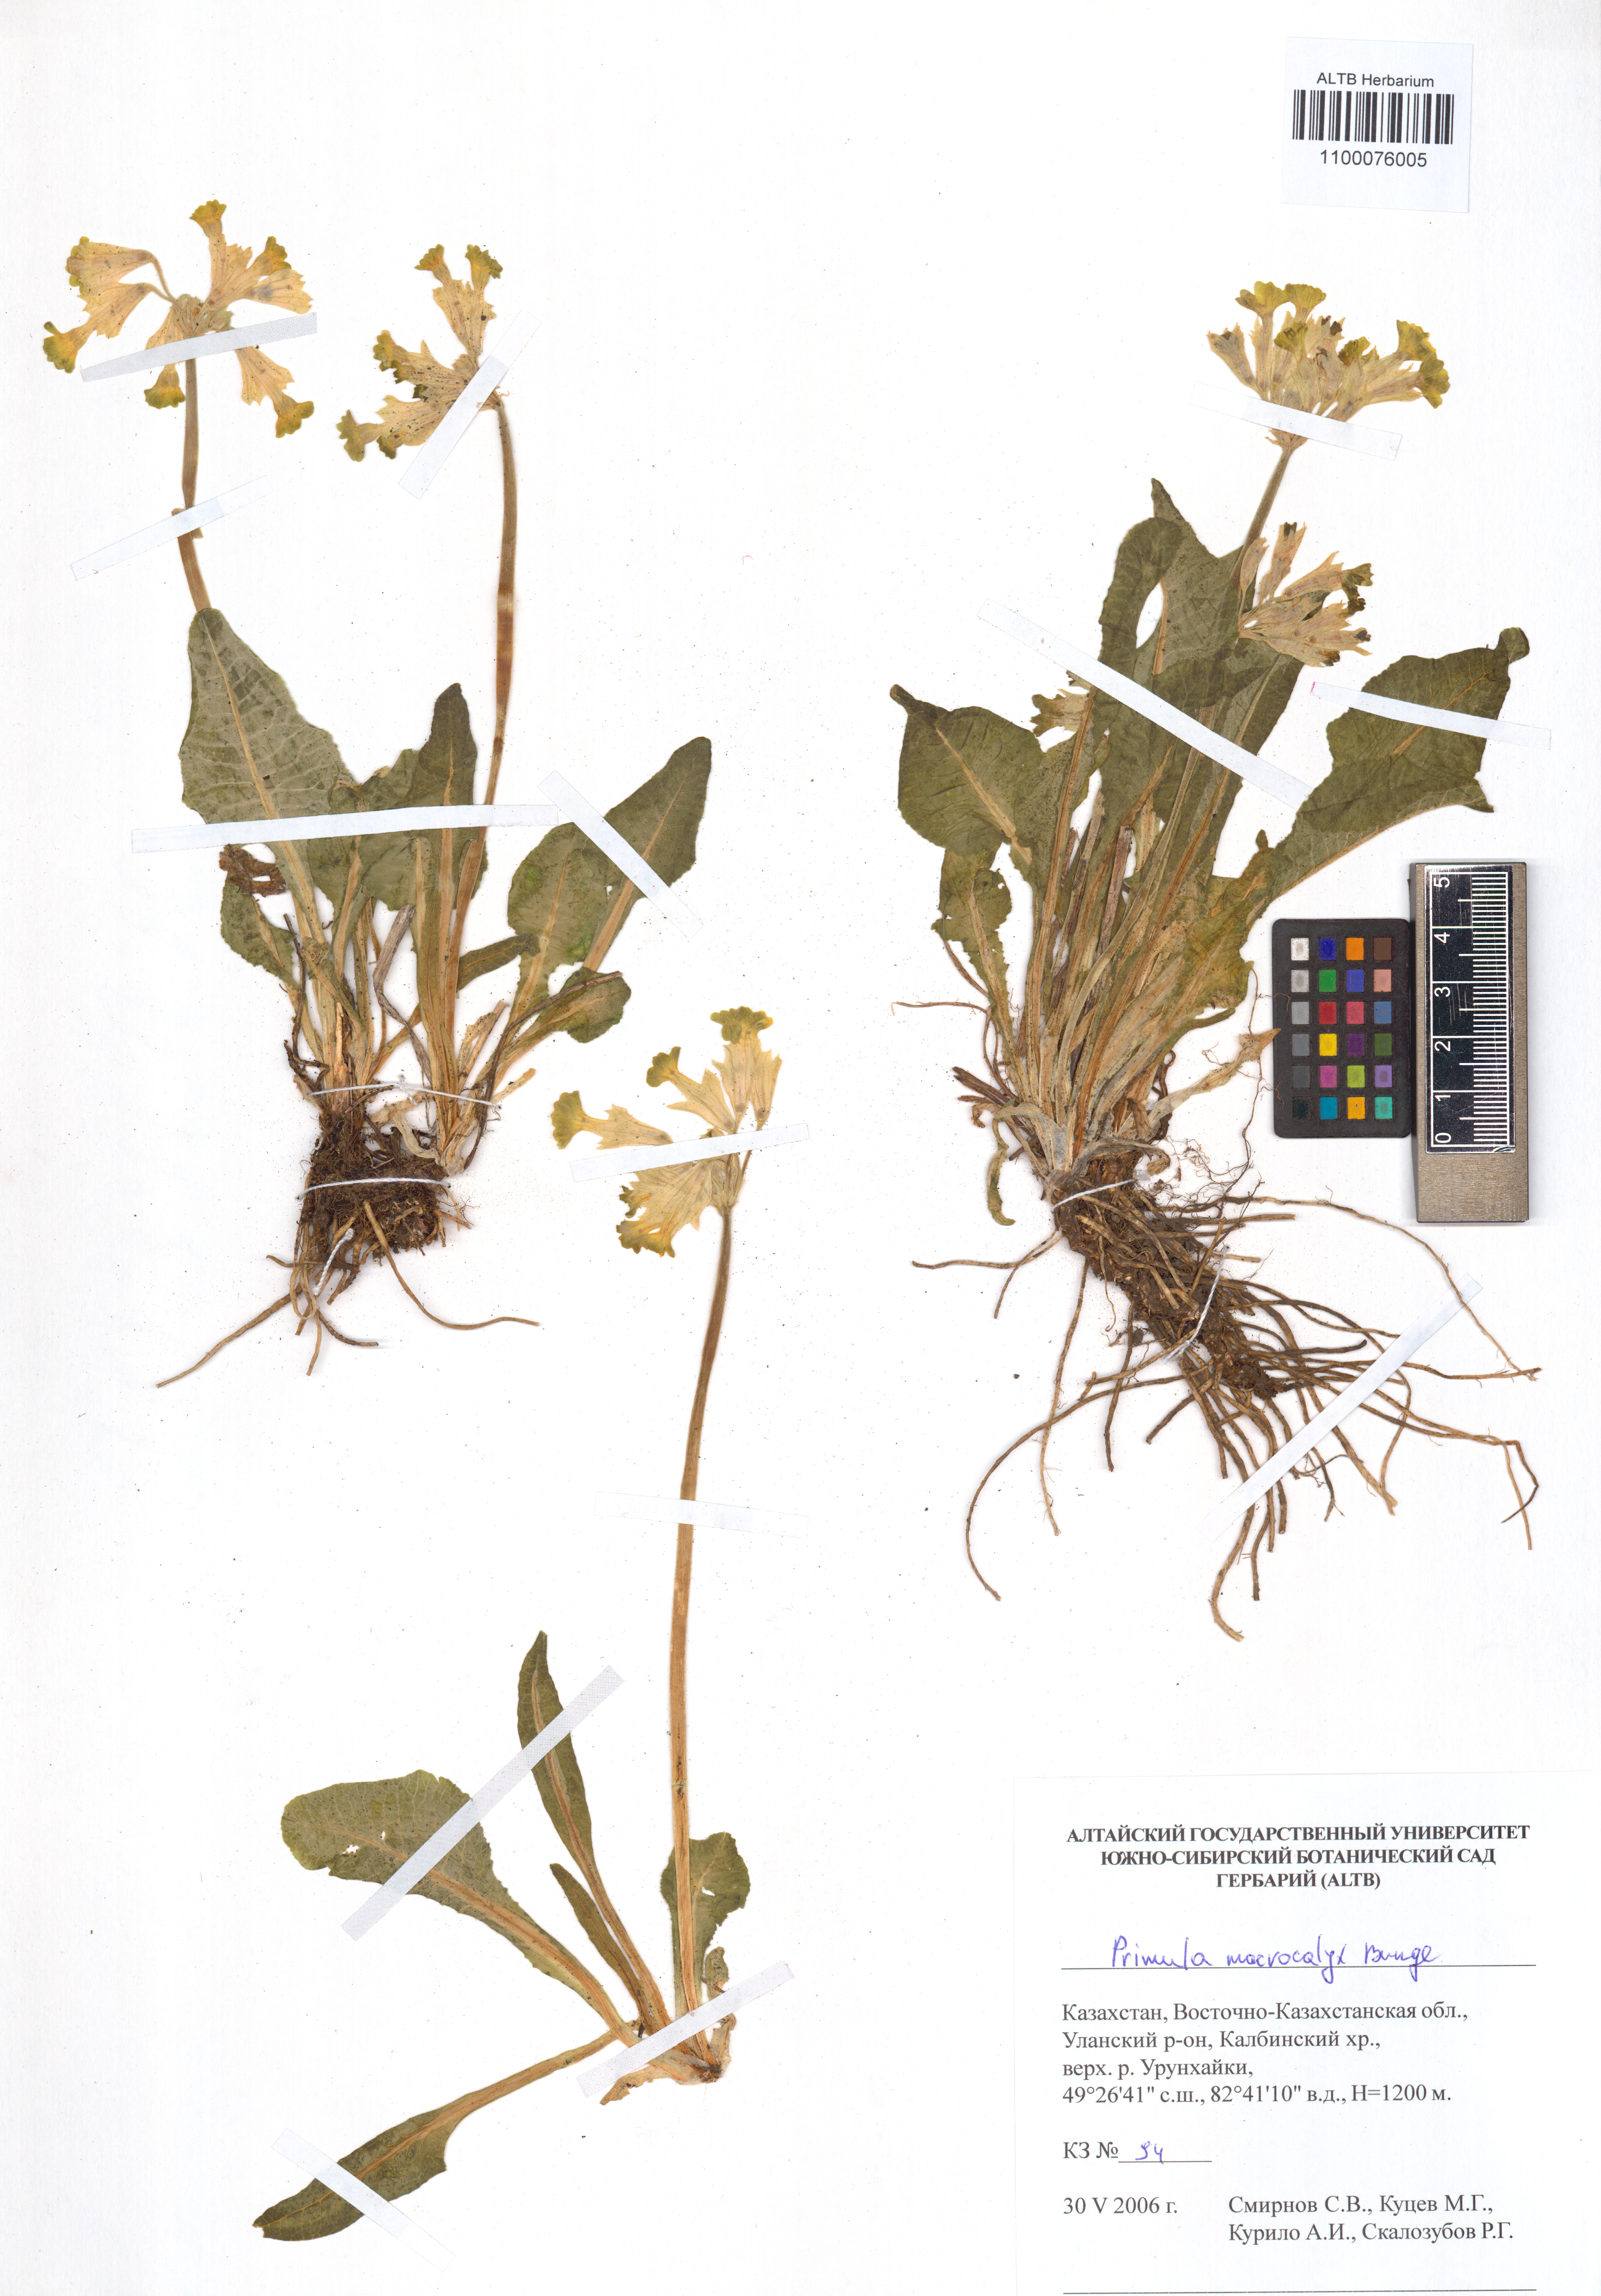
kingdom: Plantae
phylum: Tracheophyta
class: Magnoliopsida
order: Ericales
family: Primulaceae
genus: Primula
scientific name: Primula veris
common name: Cowslip
